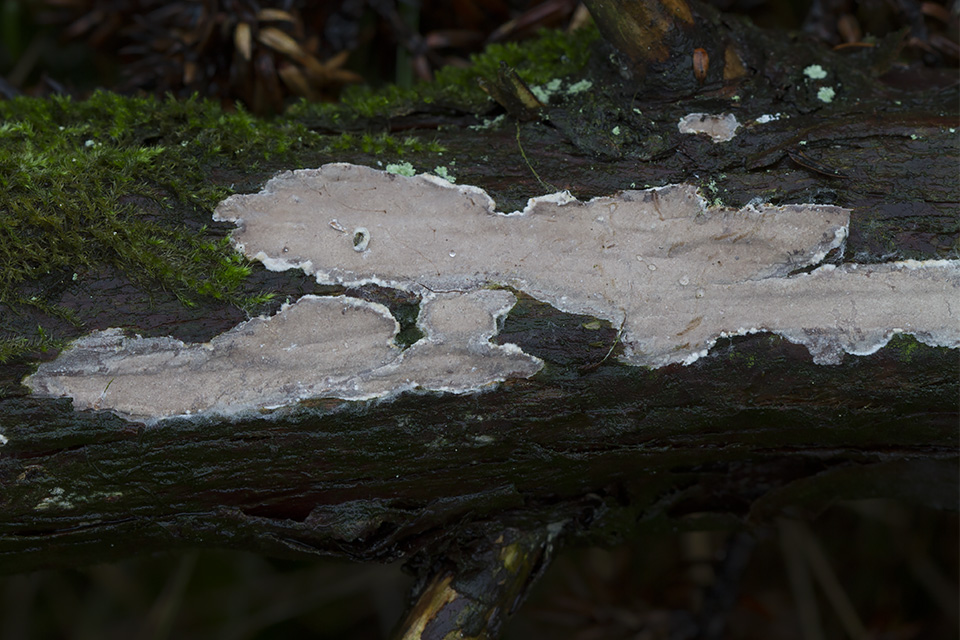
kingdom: Fungi
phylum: Basidiomycota
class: Agaricomycetes
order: Russulales
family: Echinodontiaceae
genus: Amylostereum
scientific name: Amylostereum laevigatum
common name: ene-lædersvamp
